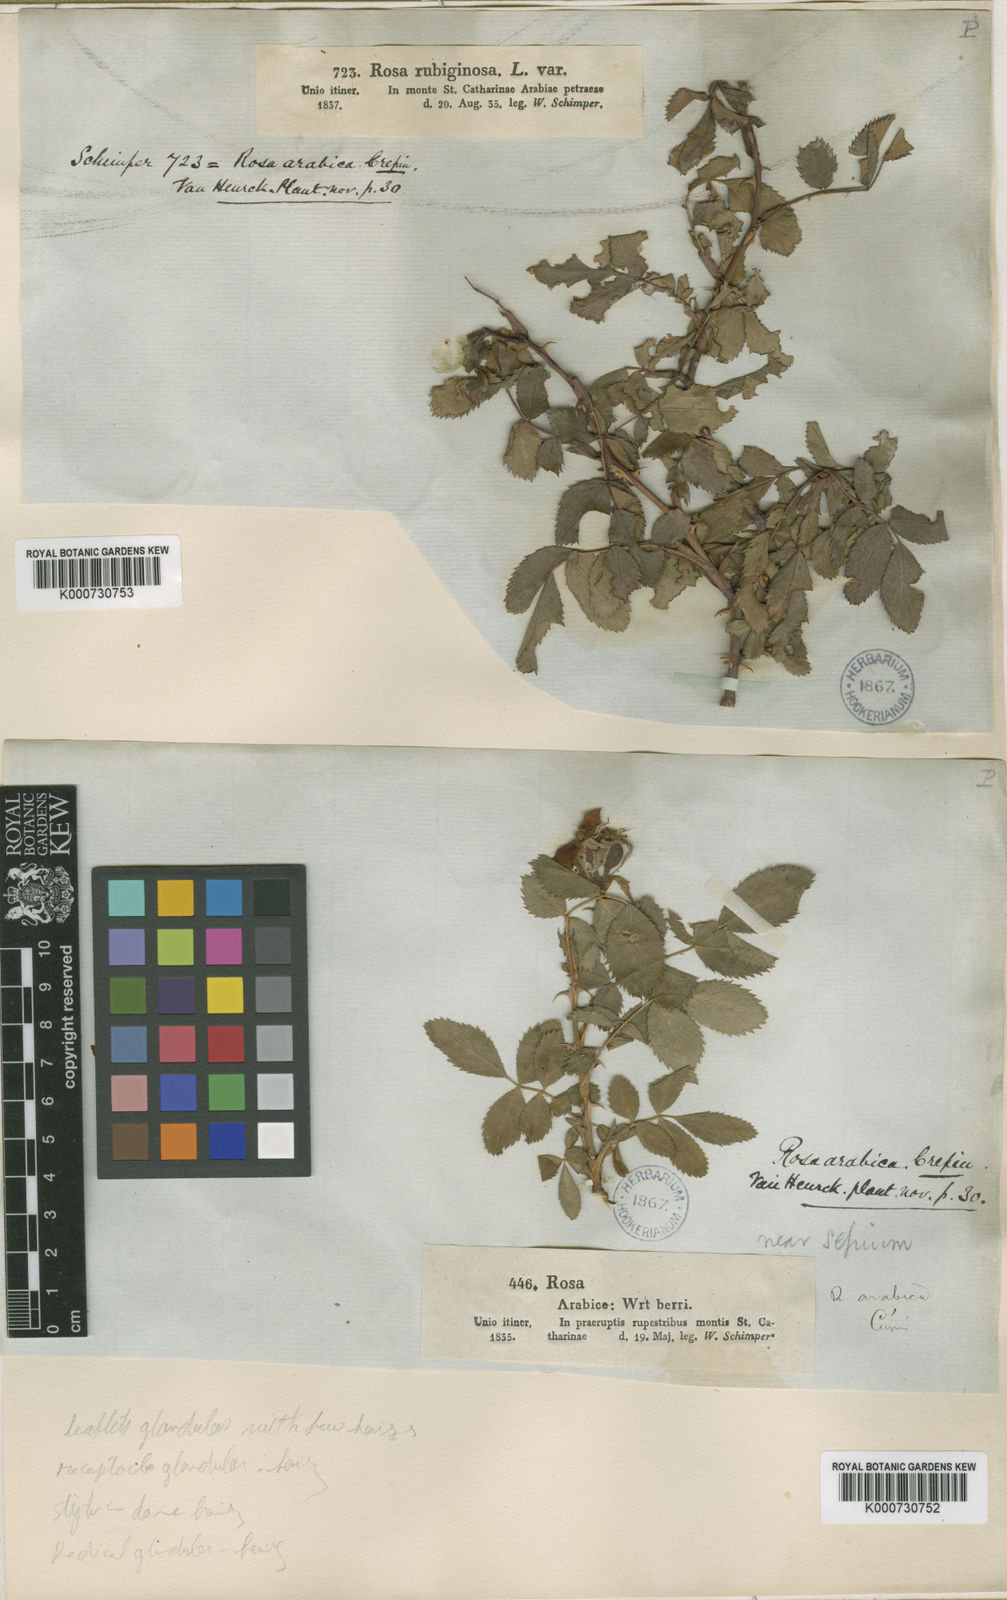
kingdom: Plantae
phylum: Tracheophyta
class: Magnoliopsida
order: Rosales
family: Rosaceae
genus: Rosa
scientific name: Rosa
